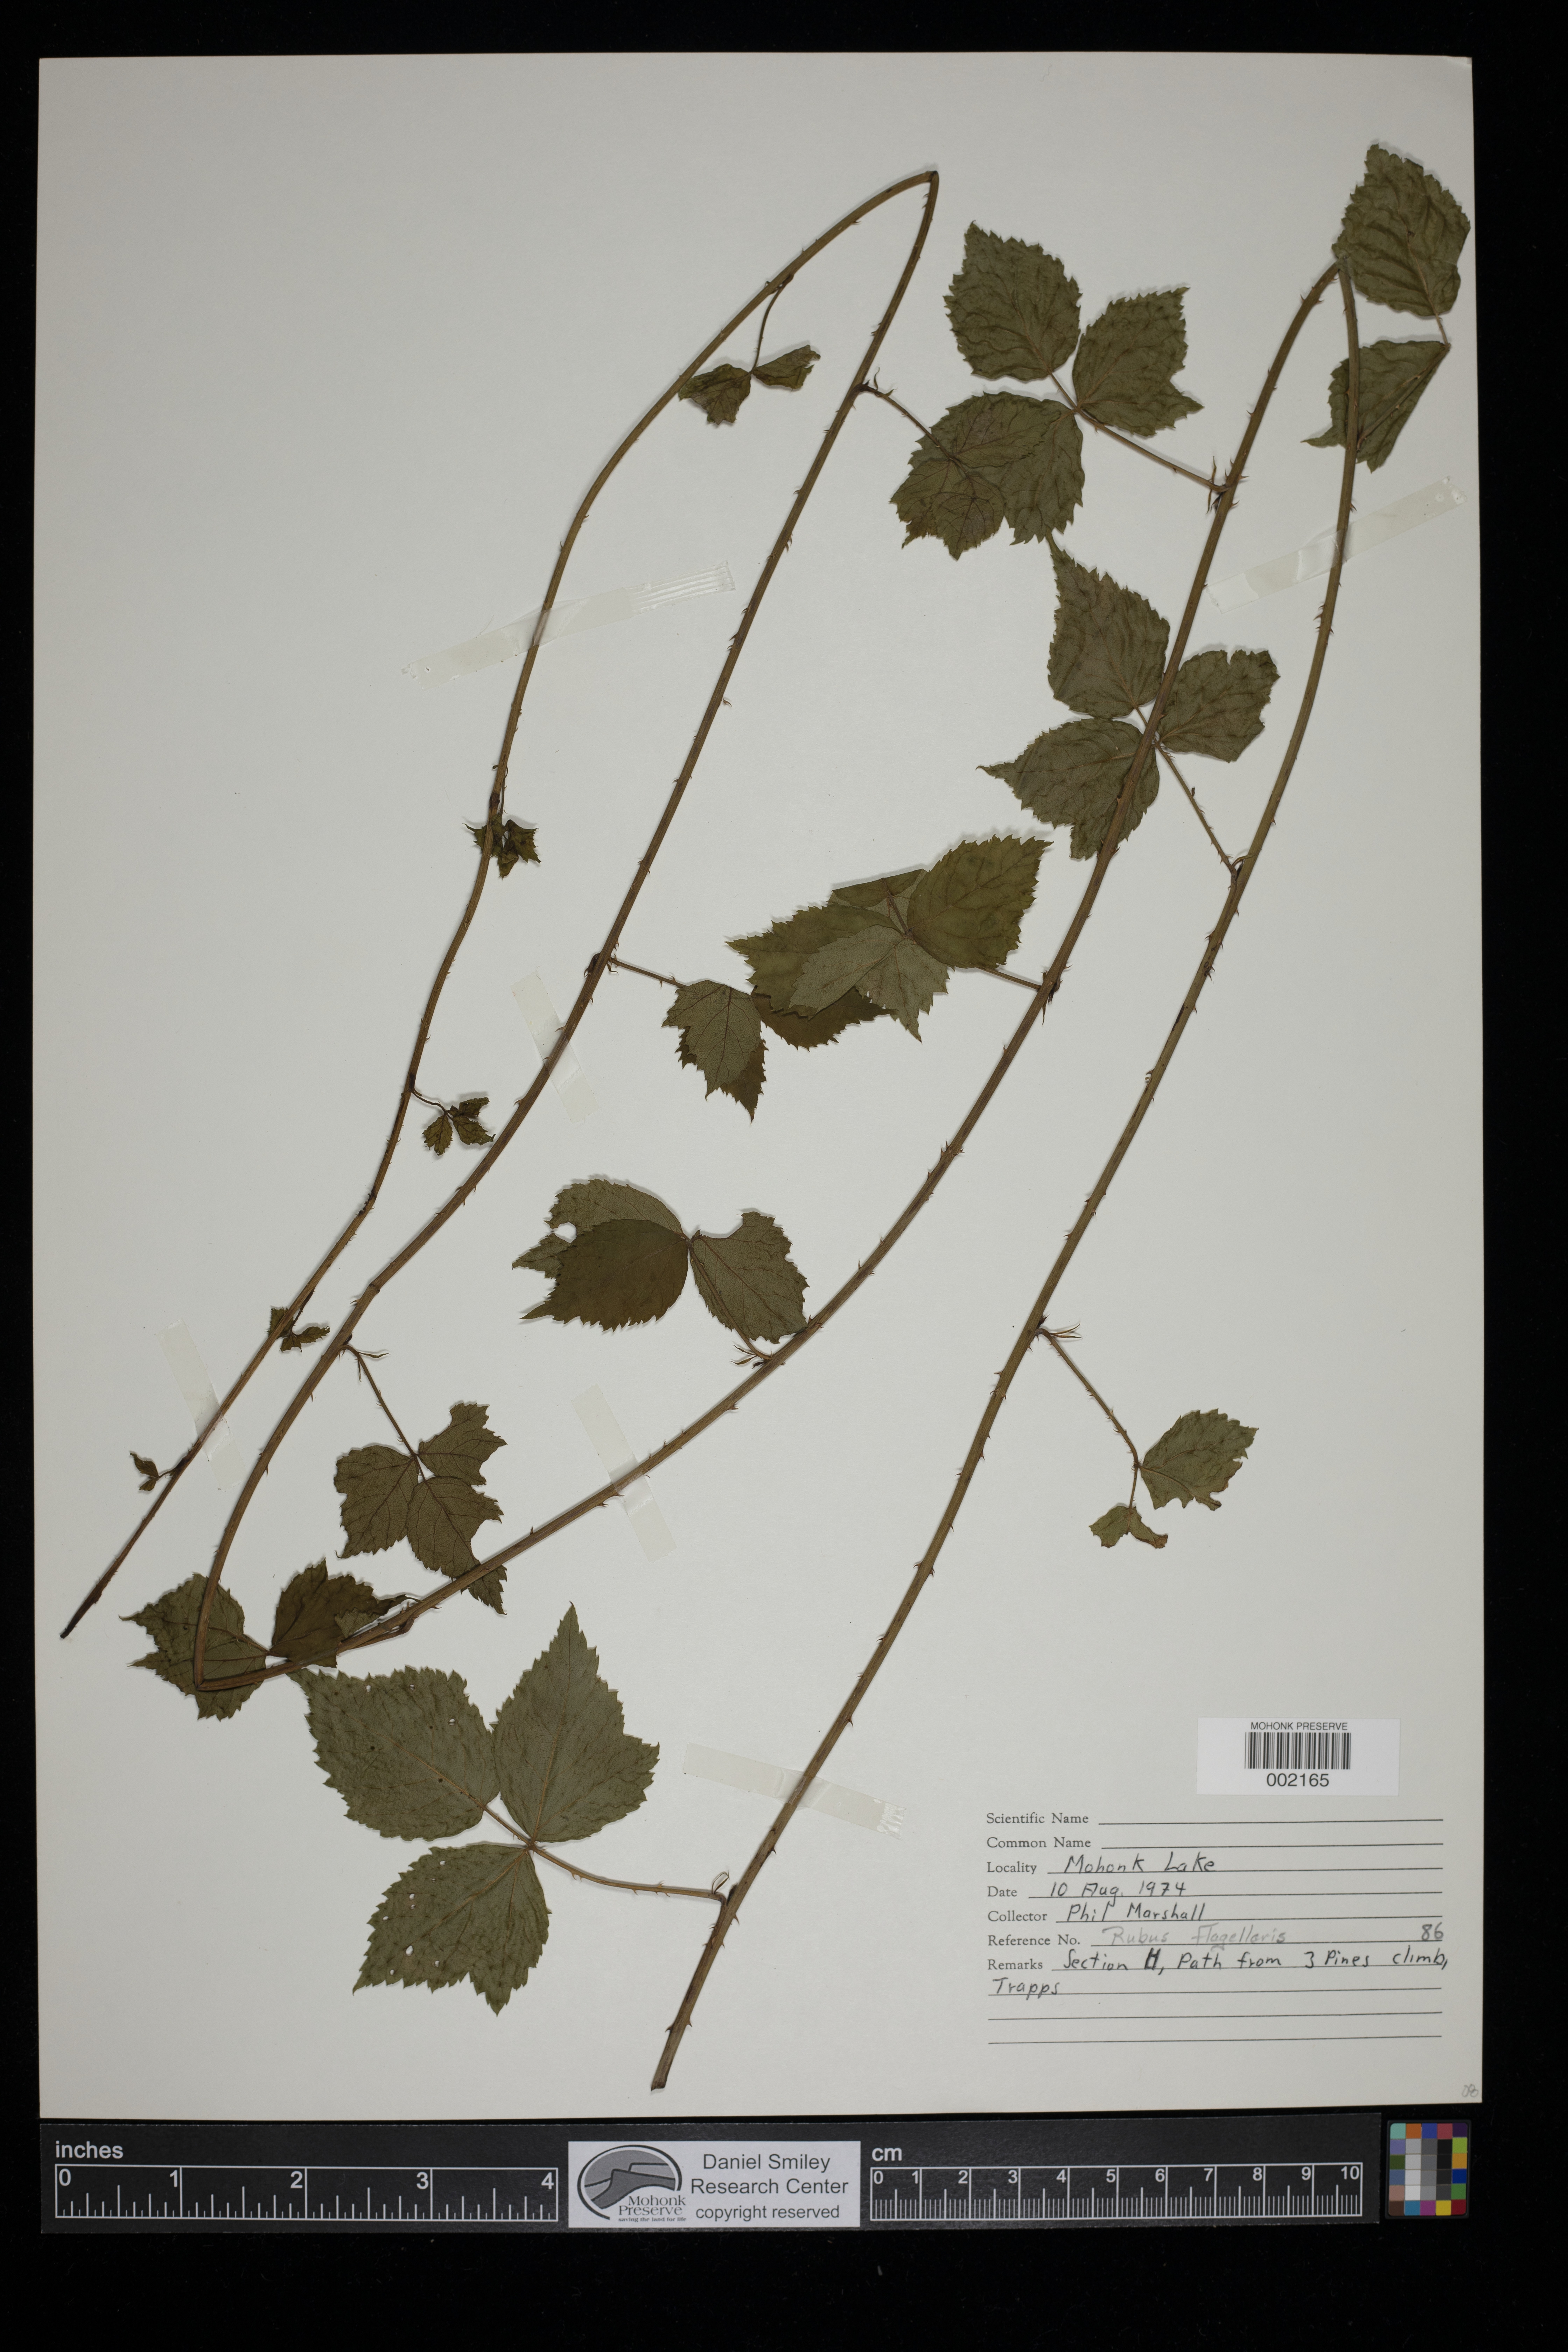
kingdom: Plantae
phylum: Tracheophyta
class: Magnoliopsida
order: Rosales
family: Rosaceae
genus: Rubus
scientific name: Rubus flagellaris
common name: American dewberry
